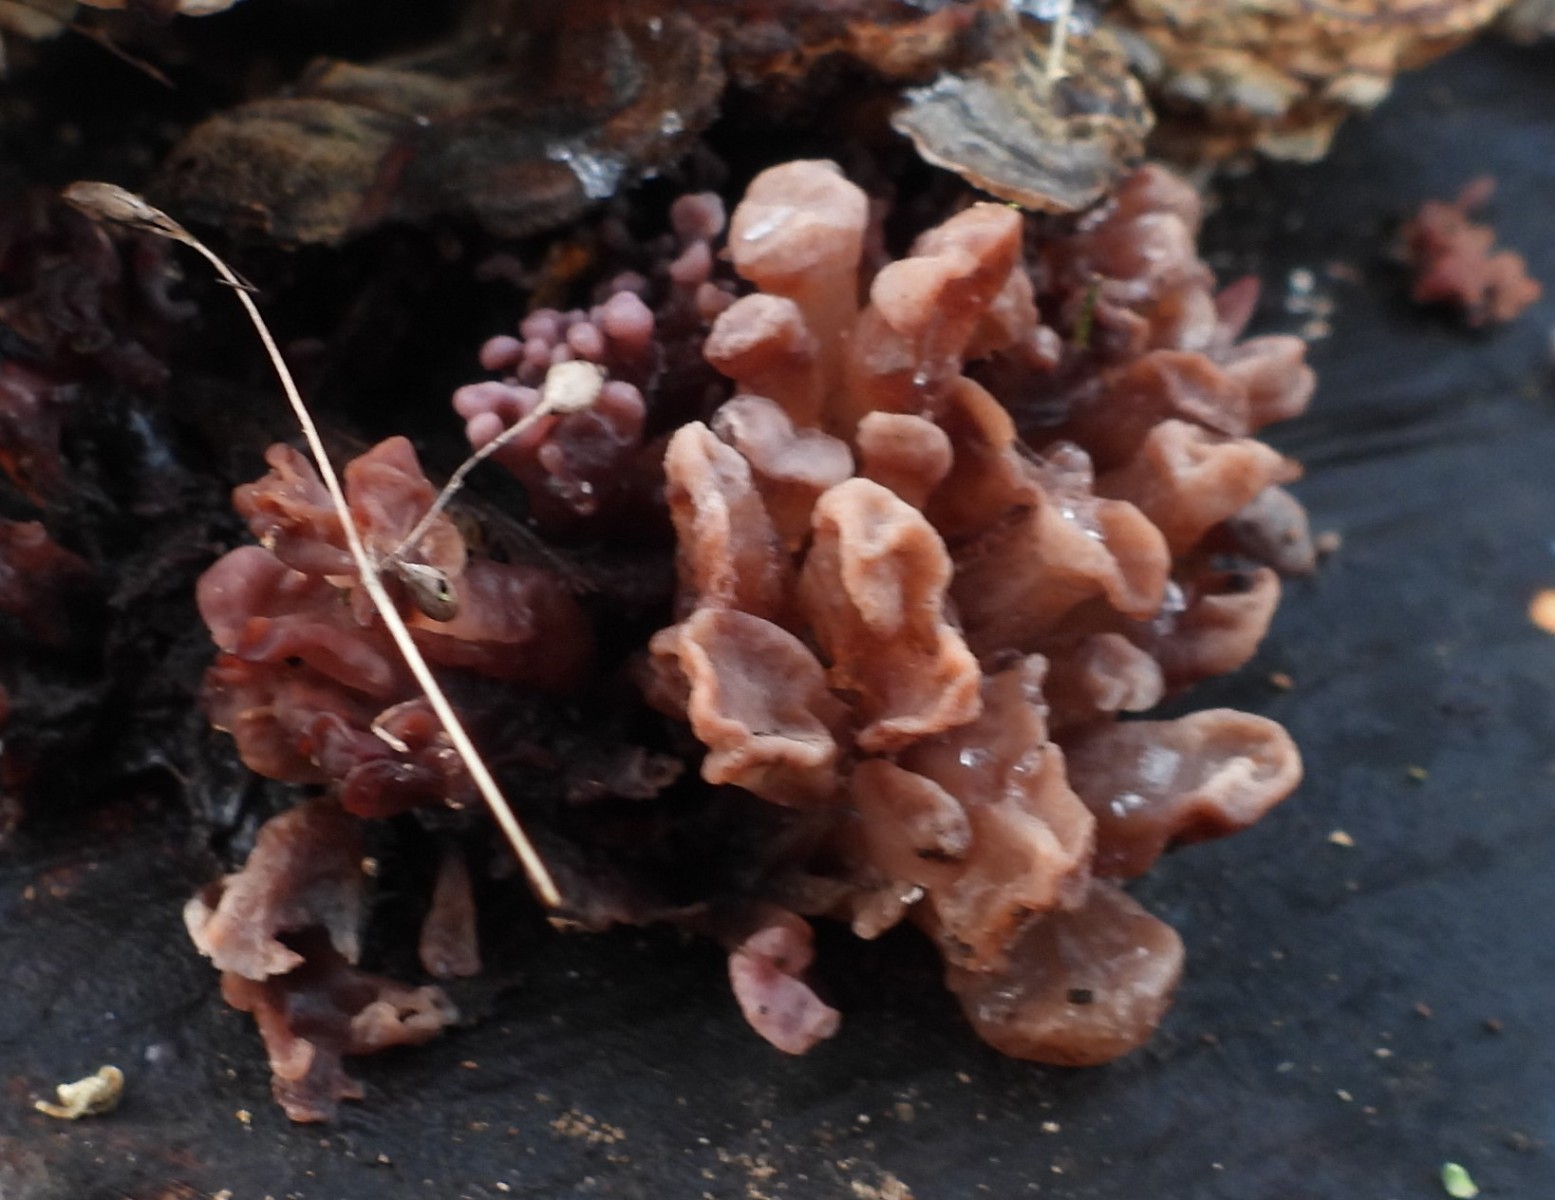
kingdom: Fungi
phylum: Ascomycota
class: Leotiomycetes
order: Helotiales
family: Gelatinodiscaceae
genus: Ascocoryne
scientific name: Ascocoryne sarcoides
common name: rødlilla sejskive
